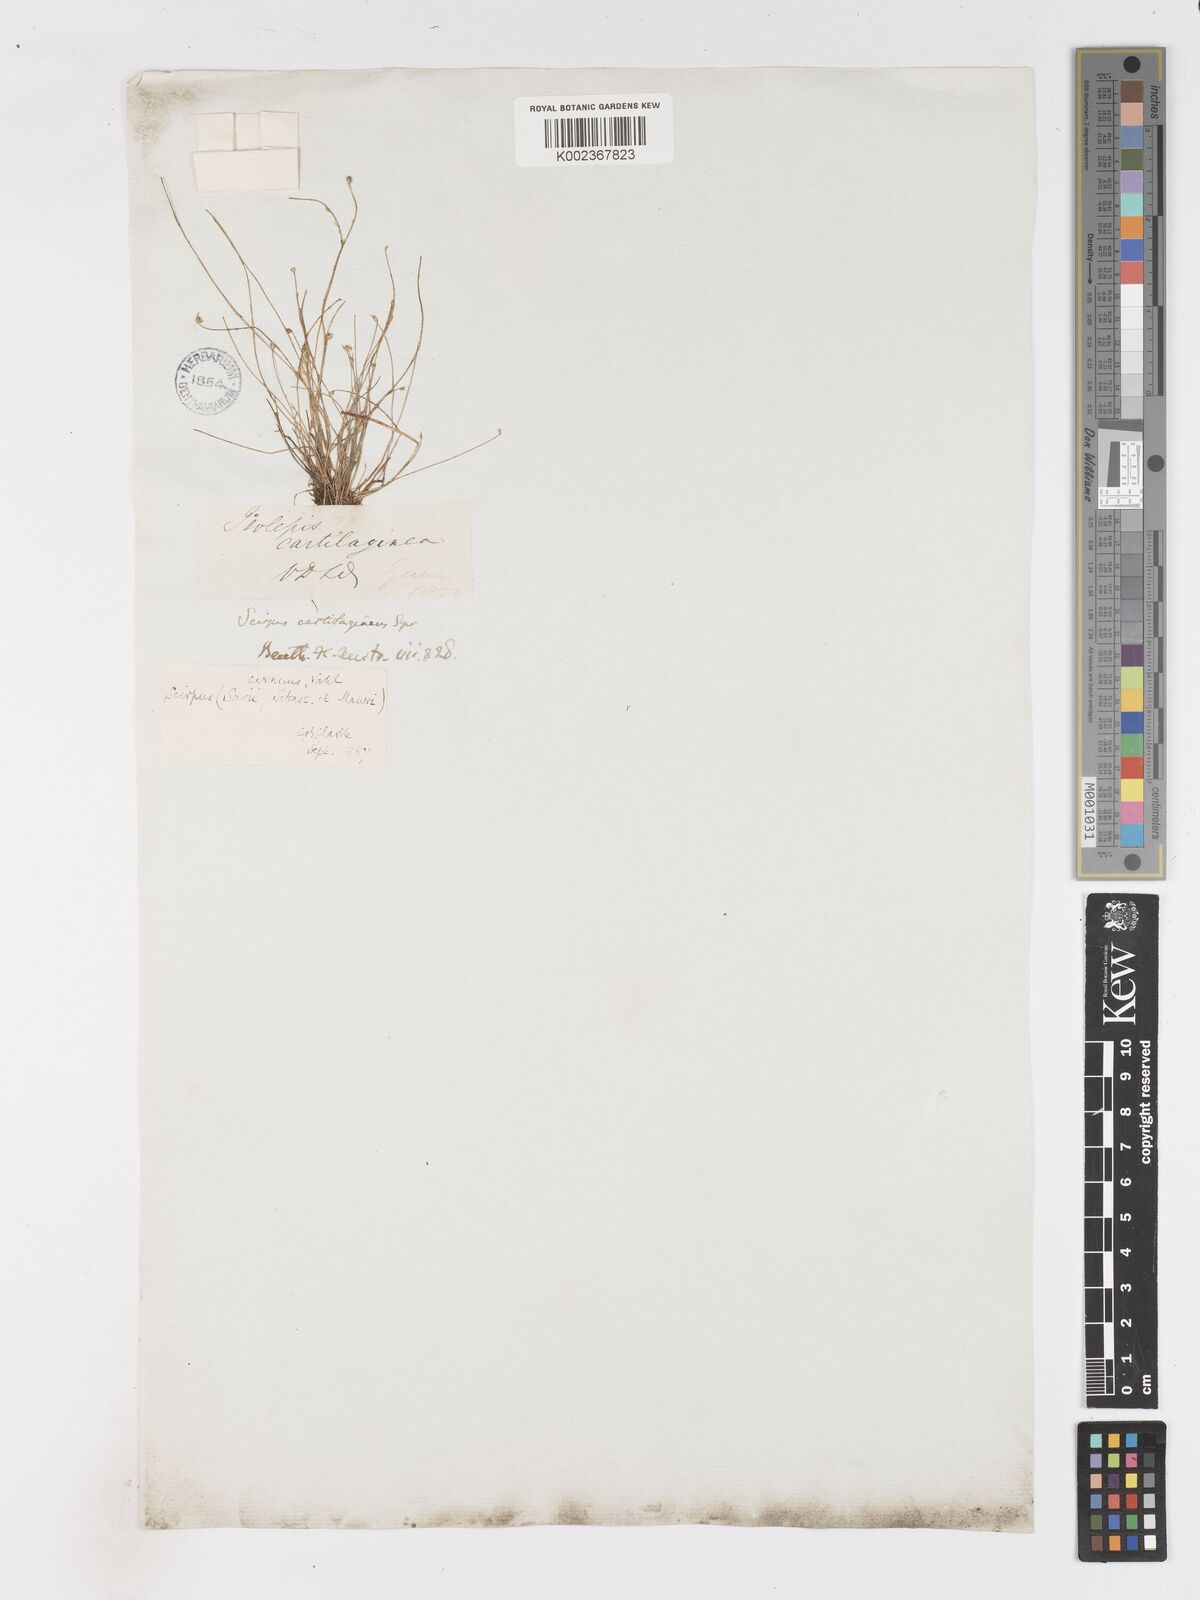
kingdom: Plantae
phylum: Tracheophyta
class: Liliopsida
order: Poales
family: Cyperaceae
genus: Isolepis
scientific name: Isolepis cernua
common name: Slender club-rush
